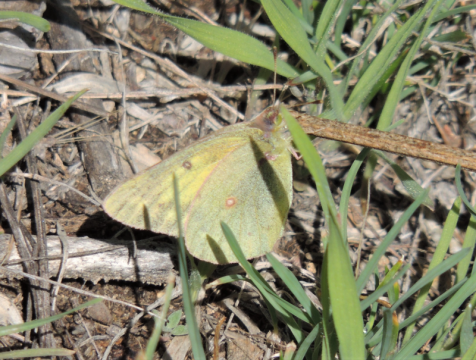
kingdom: Animalia
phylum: Arthropoda
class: Insecta
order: Lepidoptera
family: Pieridae
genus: Colias
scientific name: Colias eurytheme
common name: Orange Sulphur
